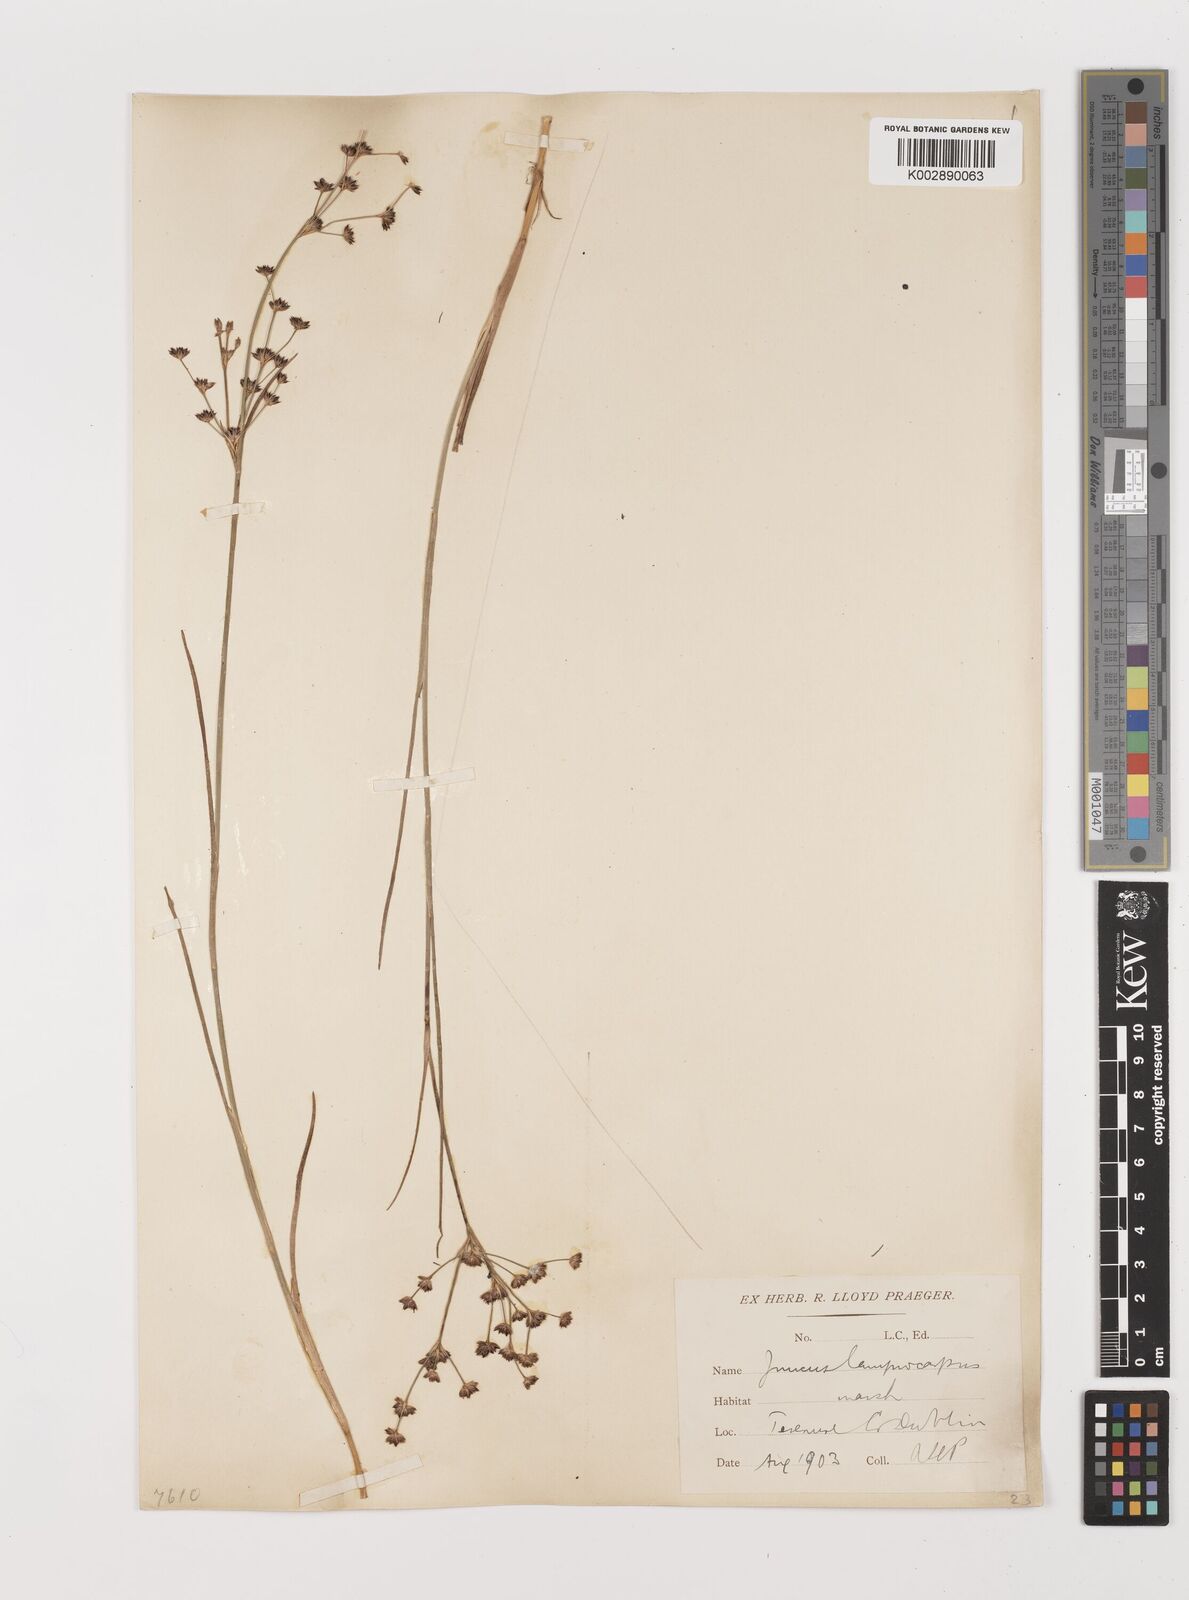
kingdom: Plantae
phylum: Tracheophyta
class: Liliopsida
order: Poales
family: Juncaceae
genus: Juncus
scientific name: Juncus articulatus
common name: Jointed rush
